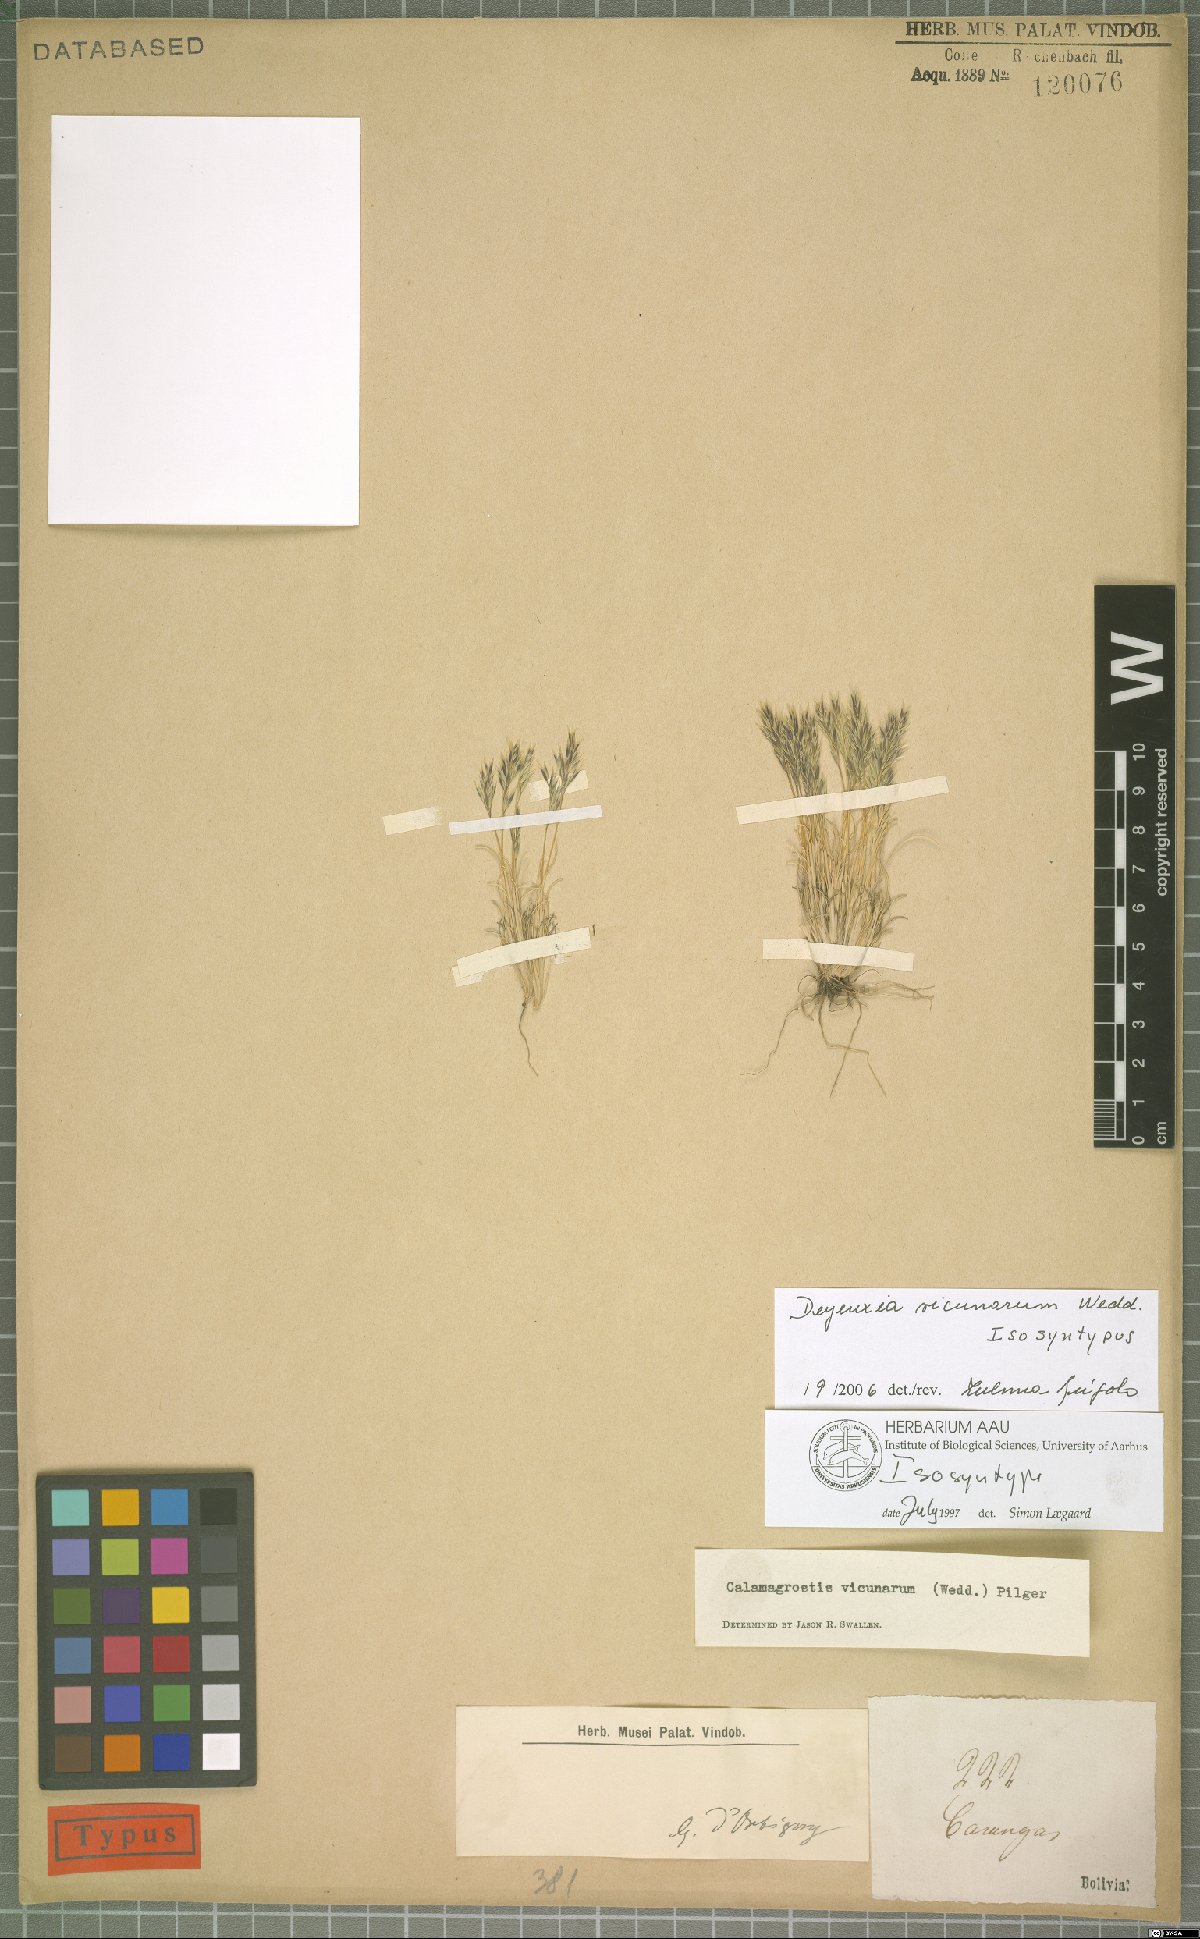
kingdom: Plantae
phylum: Tracheophyta
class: Liliopsida
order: Poales
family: Poaceae
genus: Cinnagrostis
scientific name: Cinnagrostis vicunarum
